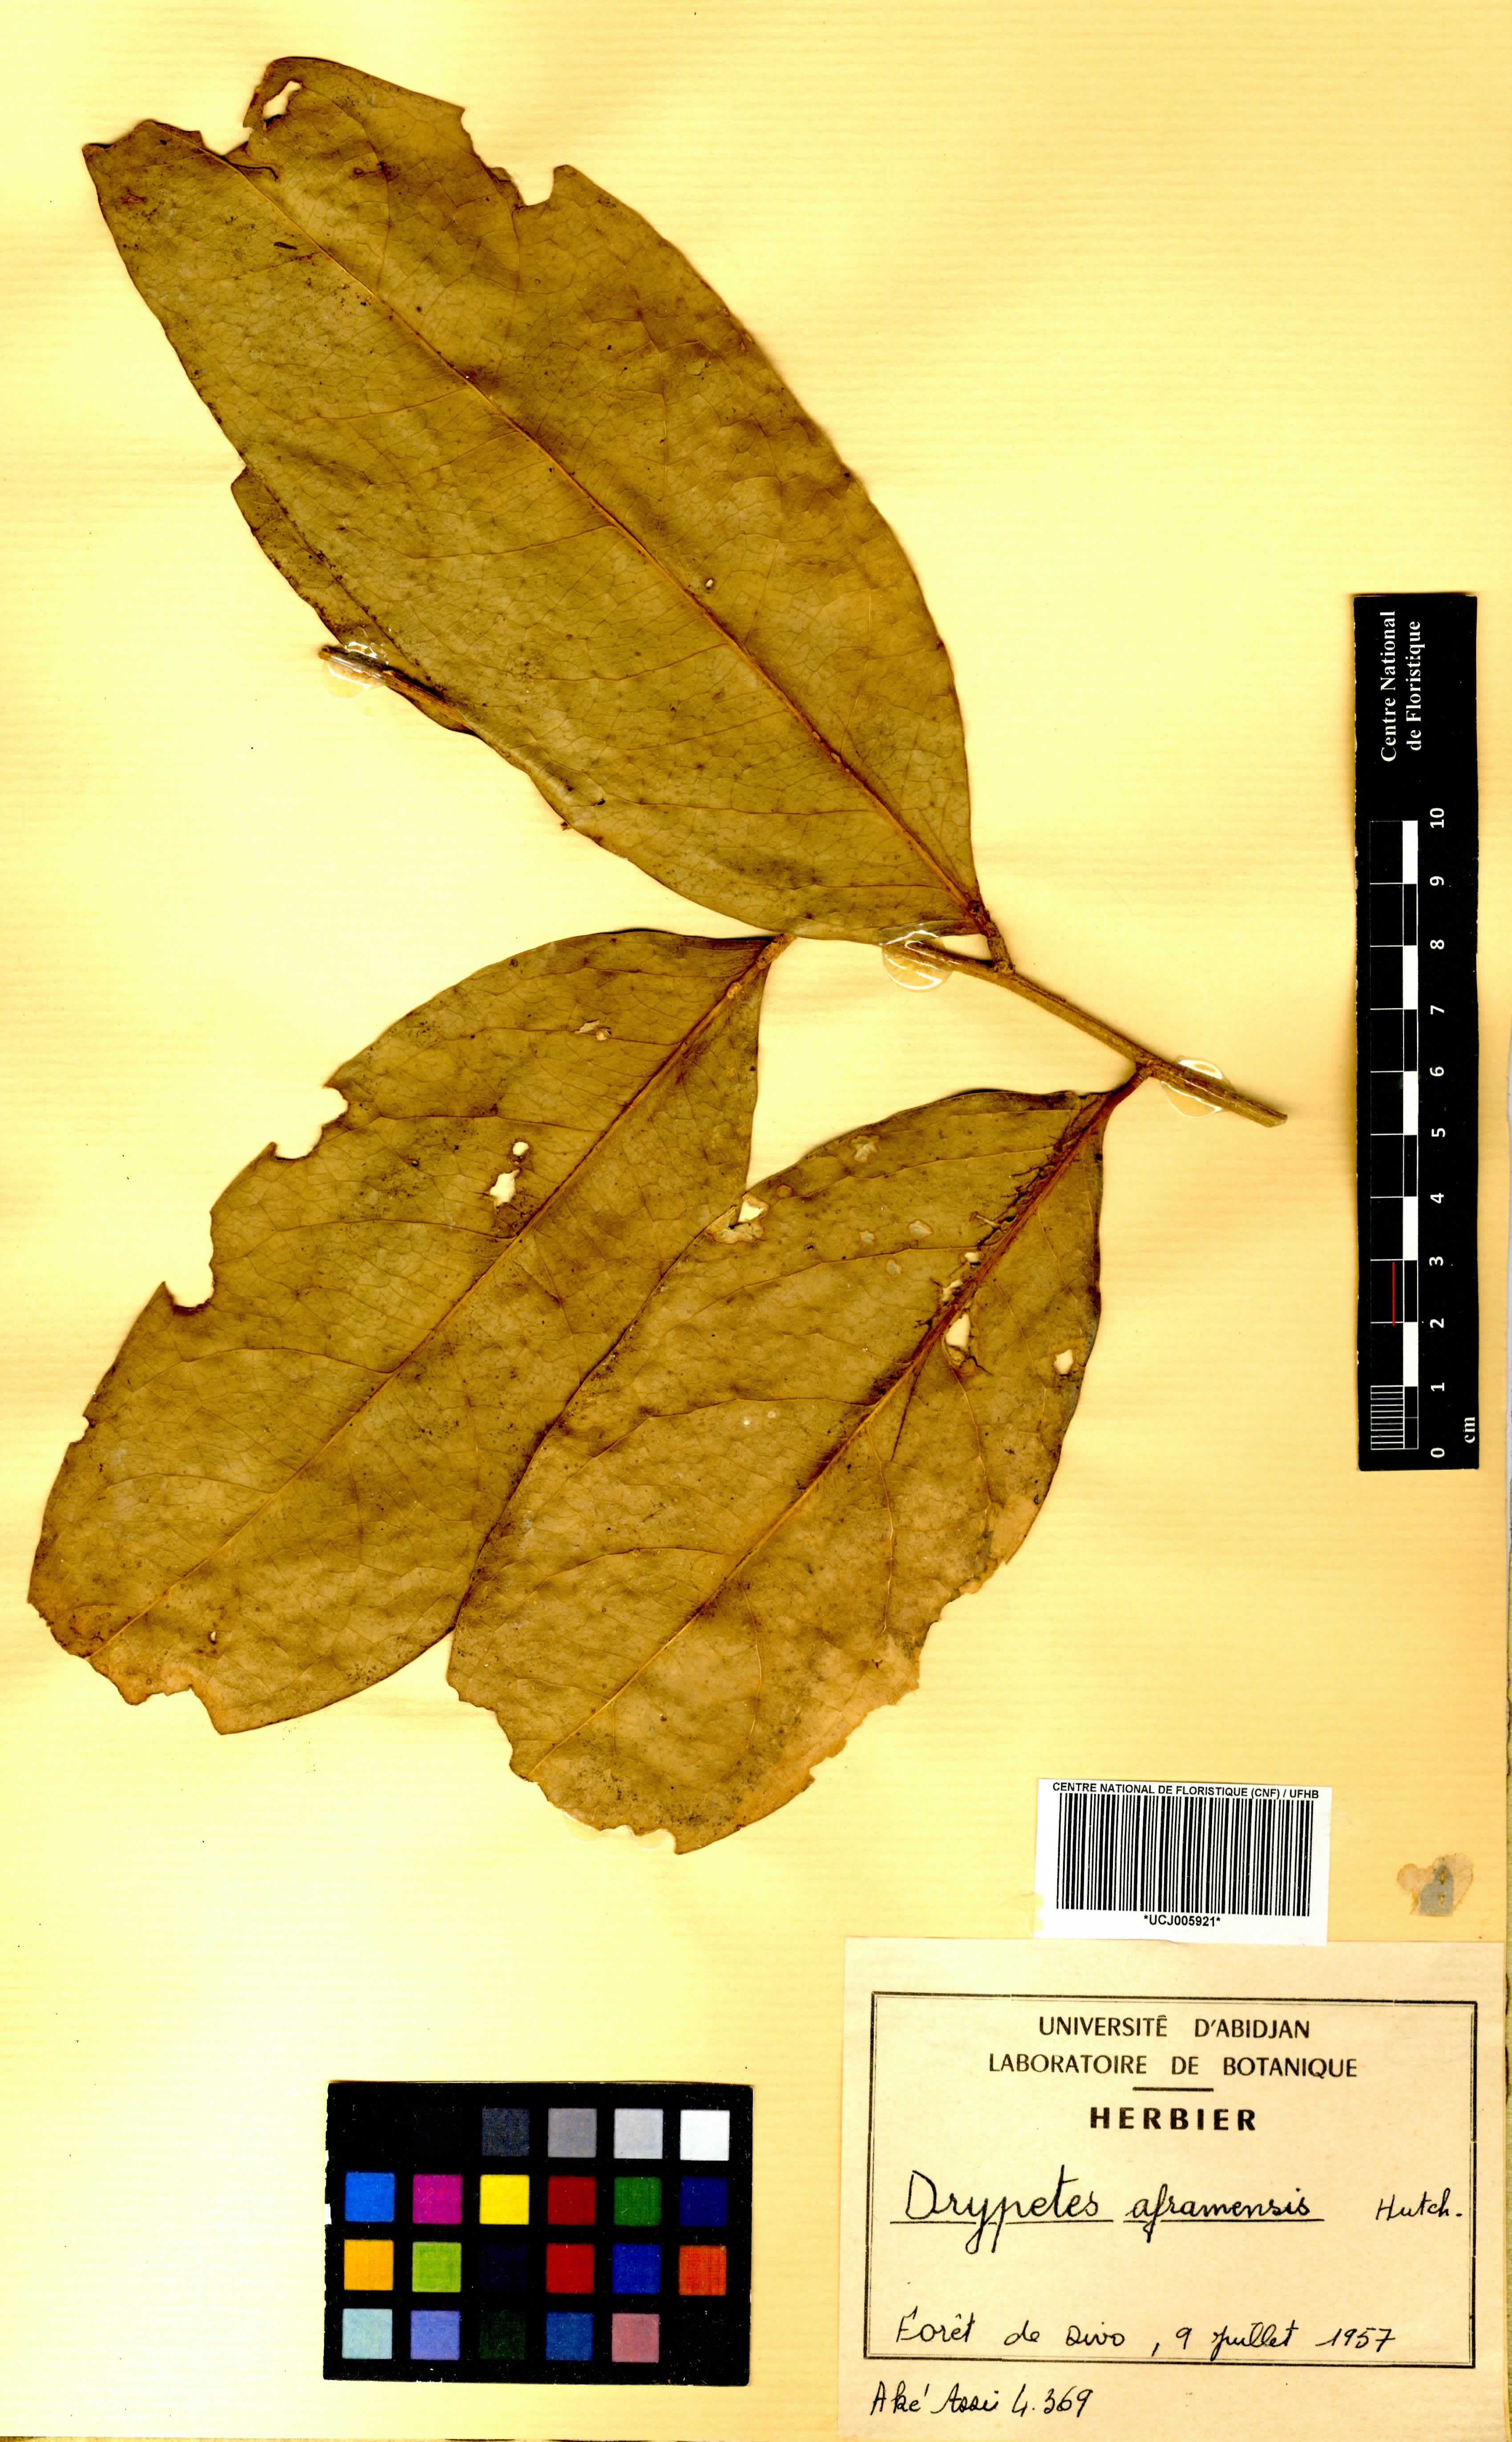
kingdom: Plantae
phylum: Tracheophyta
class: Magnoliopsida
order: Malpighiales
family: Putranjivaceae
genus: Drypetes
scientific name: Drypetes aframensis
